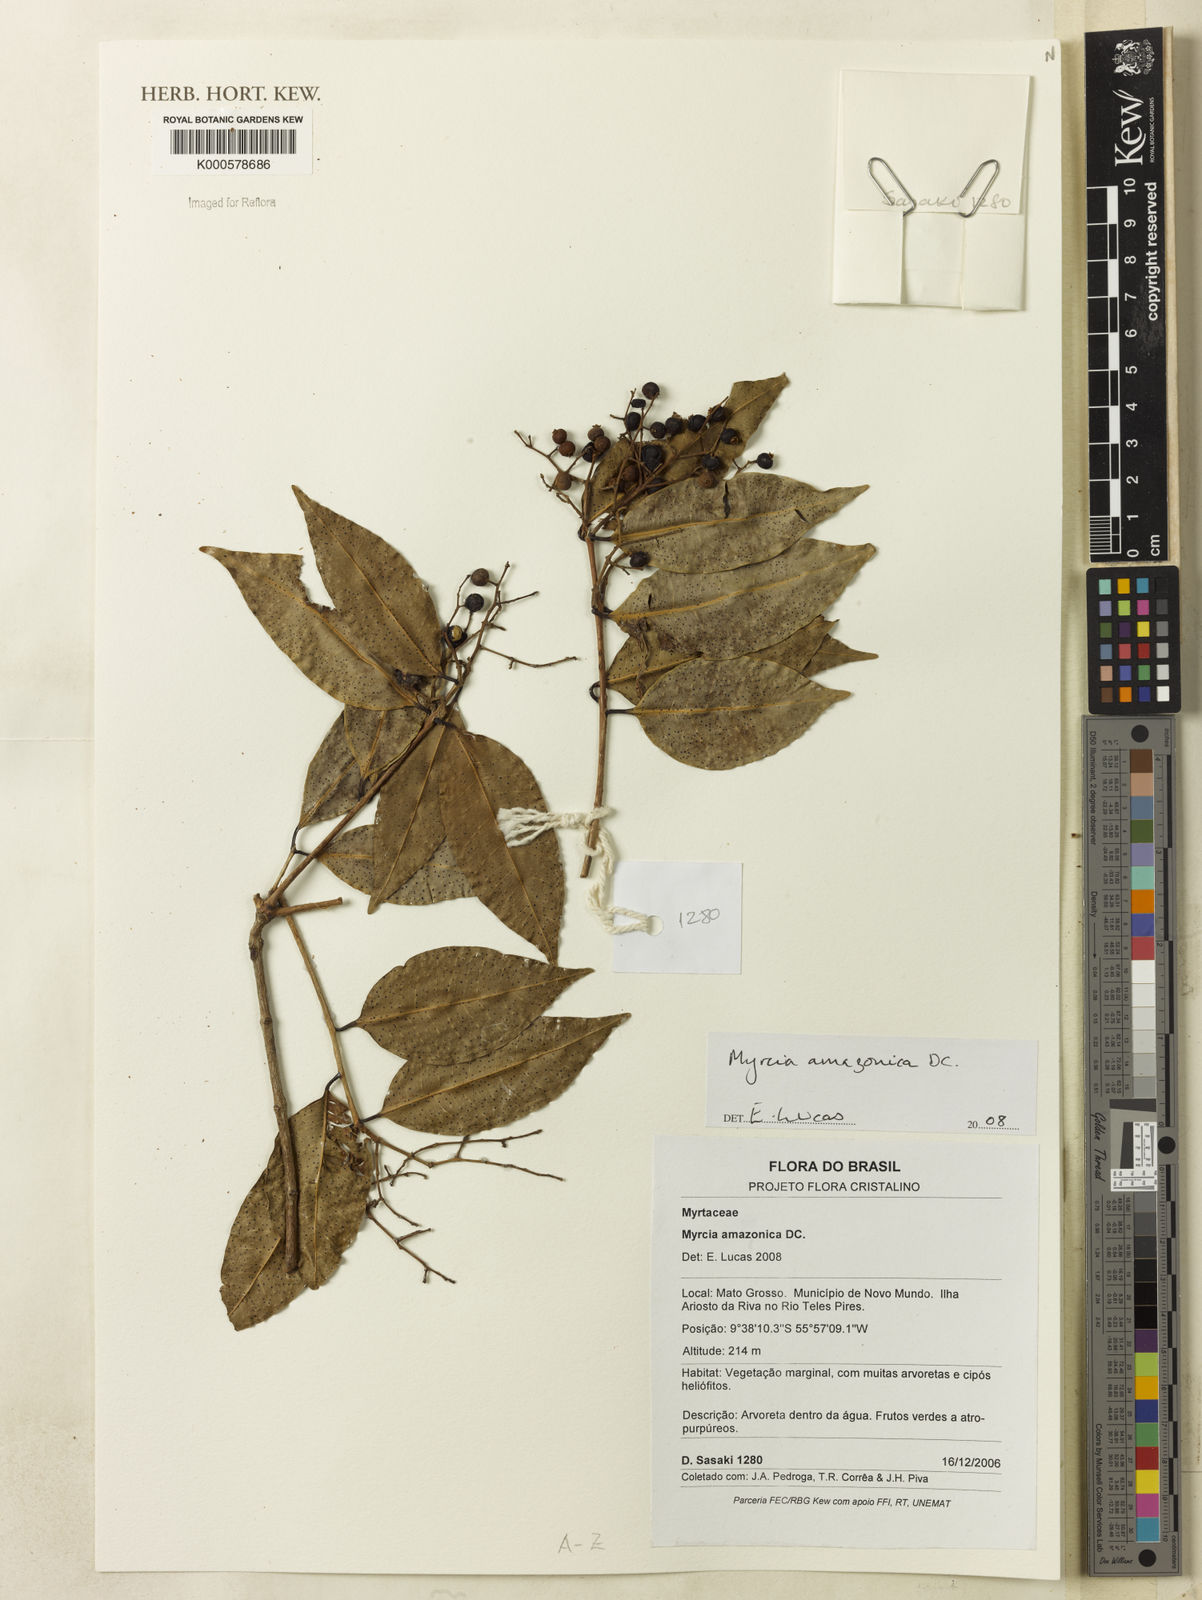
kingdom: Plantae
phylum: Tracheophyta
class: Magnoliopsida
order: Myrtales
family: Myrtaceae
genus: Myrcia
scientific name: Myrcia amazonica
